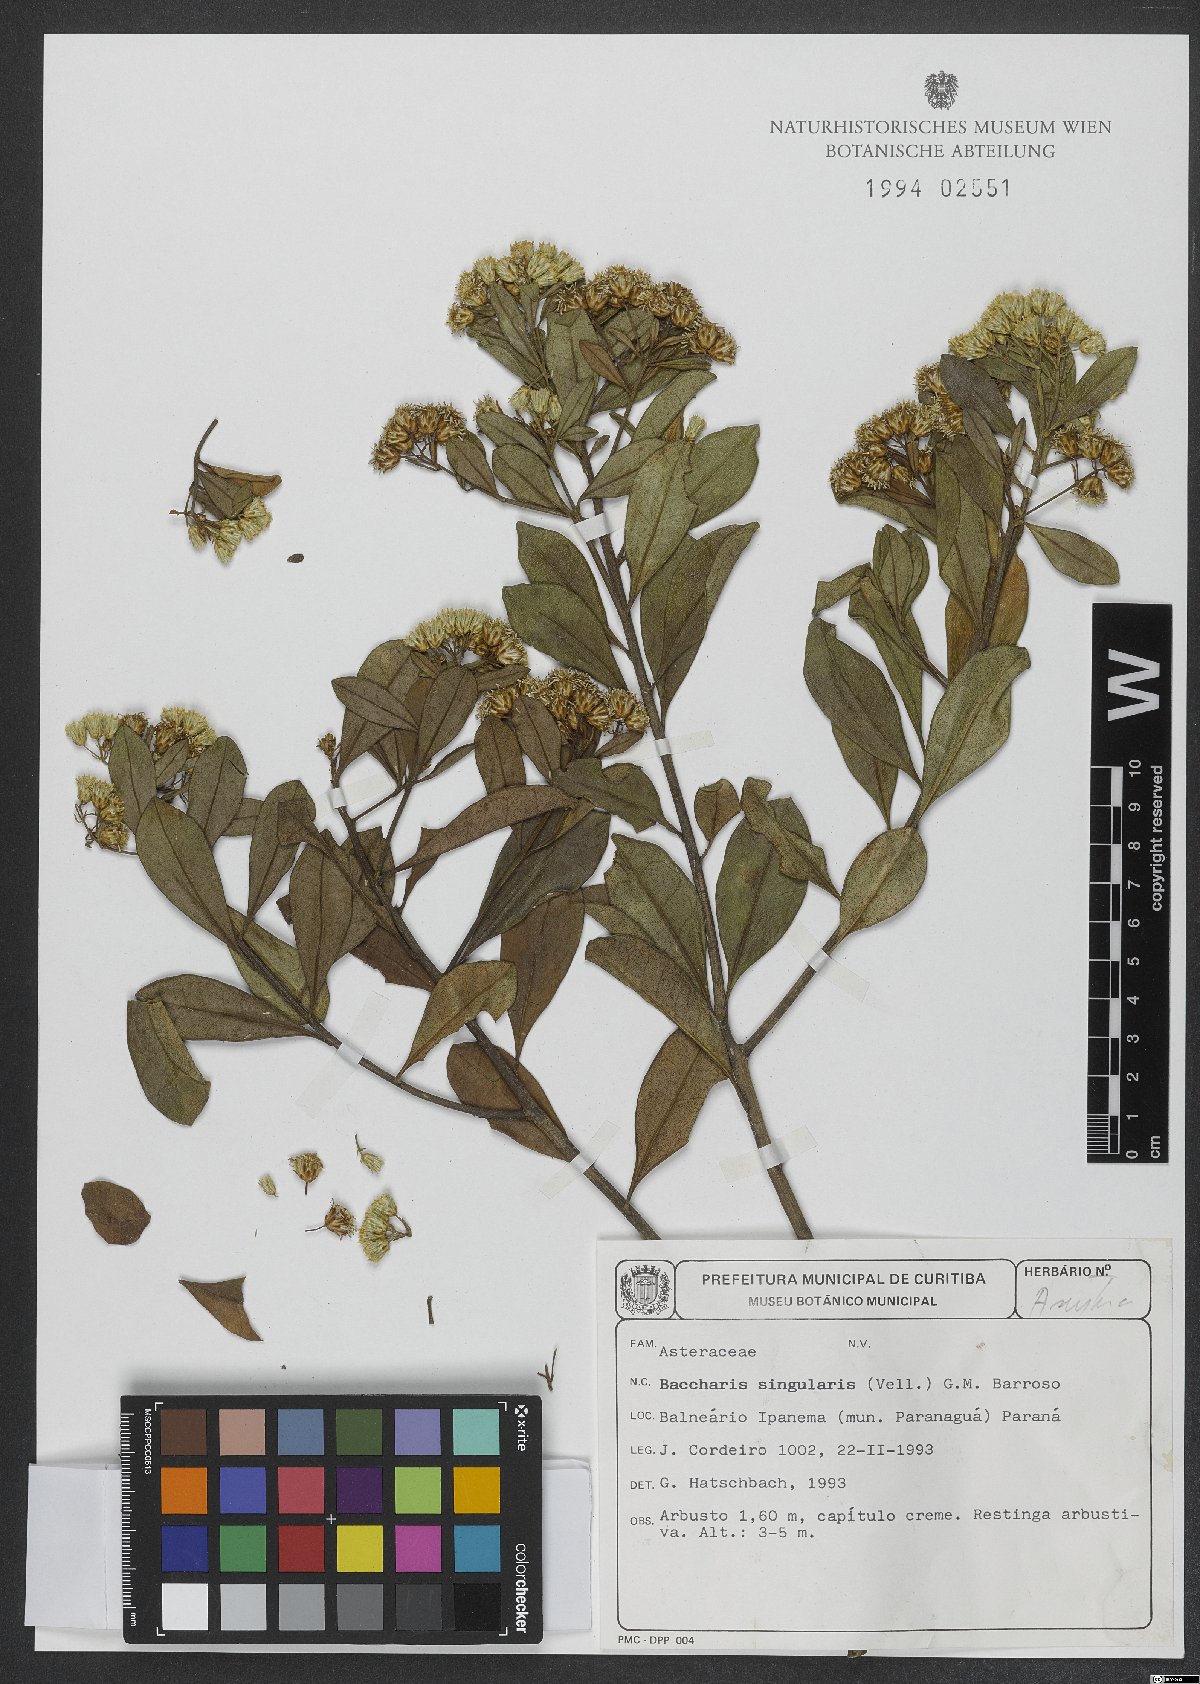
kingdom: Plantae
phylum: Tracheophyta
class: Magnoliopsida
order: Asterales
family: Asteraceae
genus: Baccharis
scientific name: Baccharis singularis
